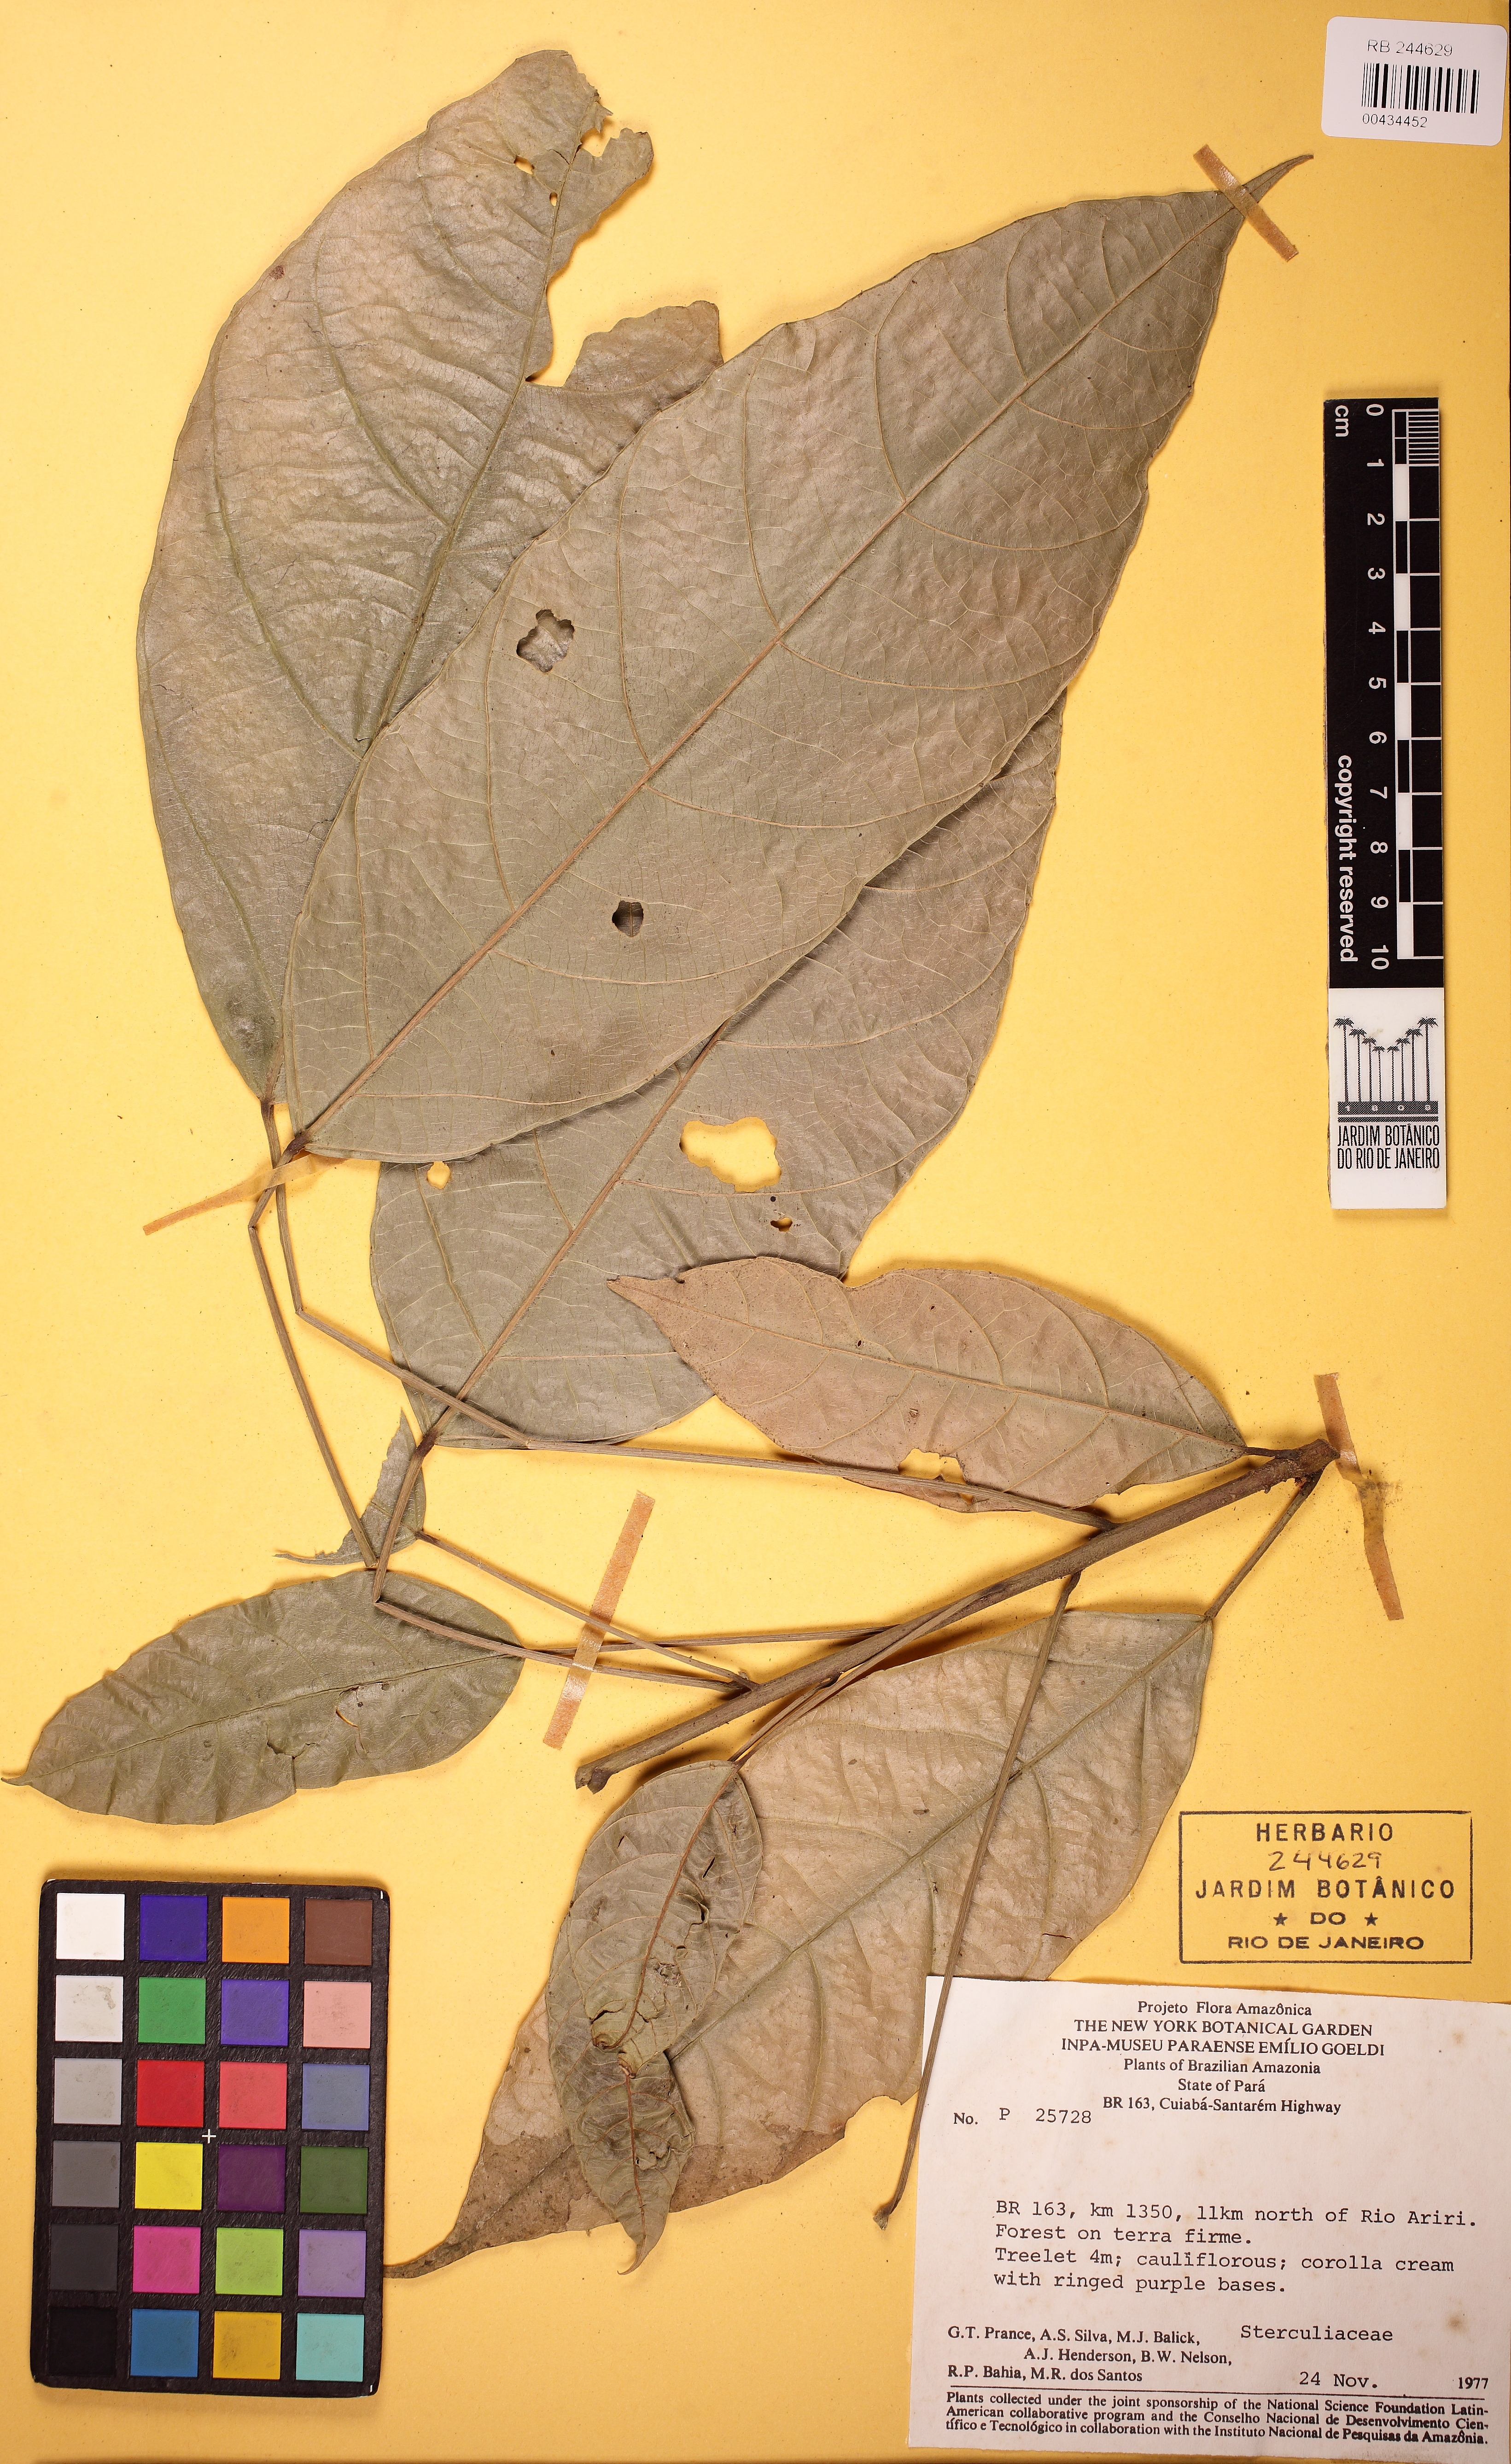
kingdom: Plantae
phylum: Tracheophyta
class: Magnoliopsida
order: Malvales
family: Malvaceae
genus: Theobroma
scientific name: Theobroma cacao
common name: Cocoa
